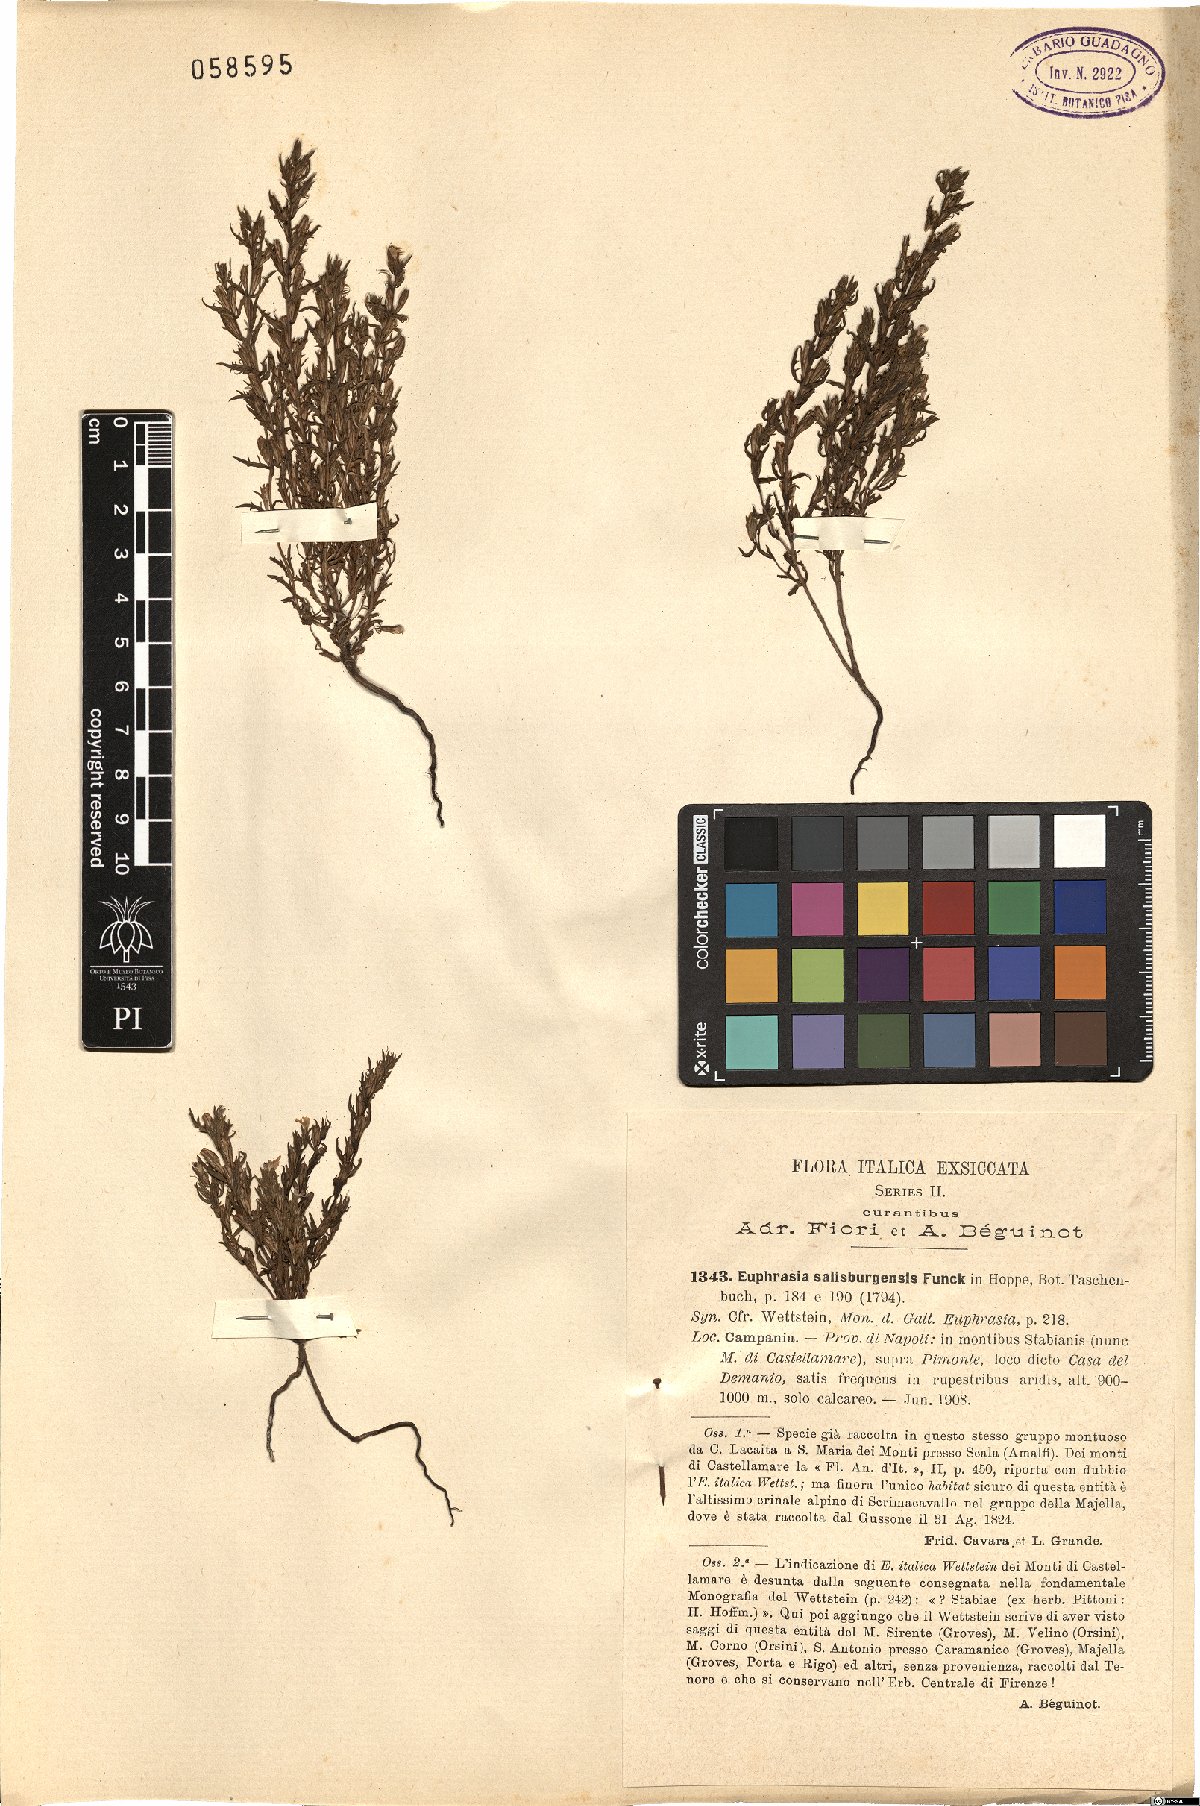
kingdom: Plantae
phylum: Tracheophyta
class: Magnoliopsida
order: Lamiales
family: Orobanchaceae
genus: Euphrasia
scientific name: Euphrasia salisburgensis
